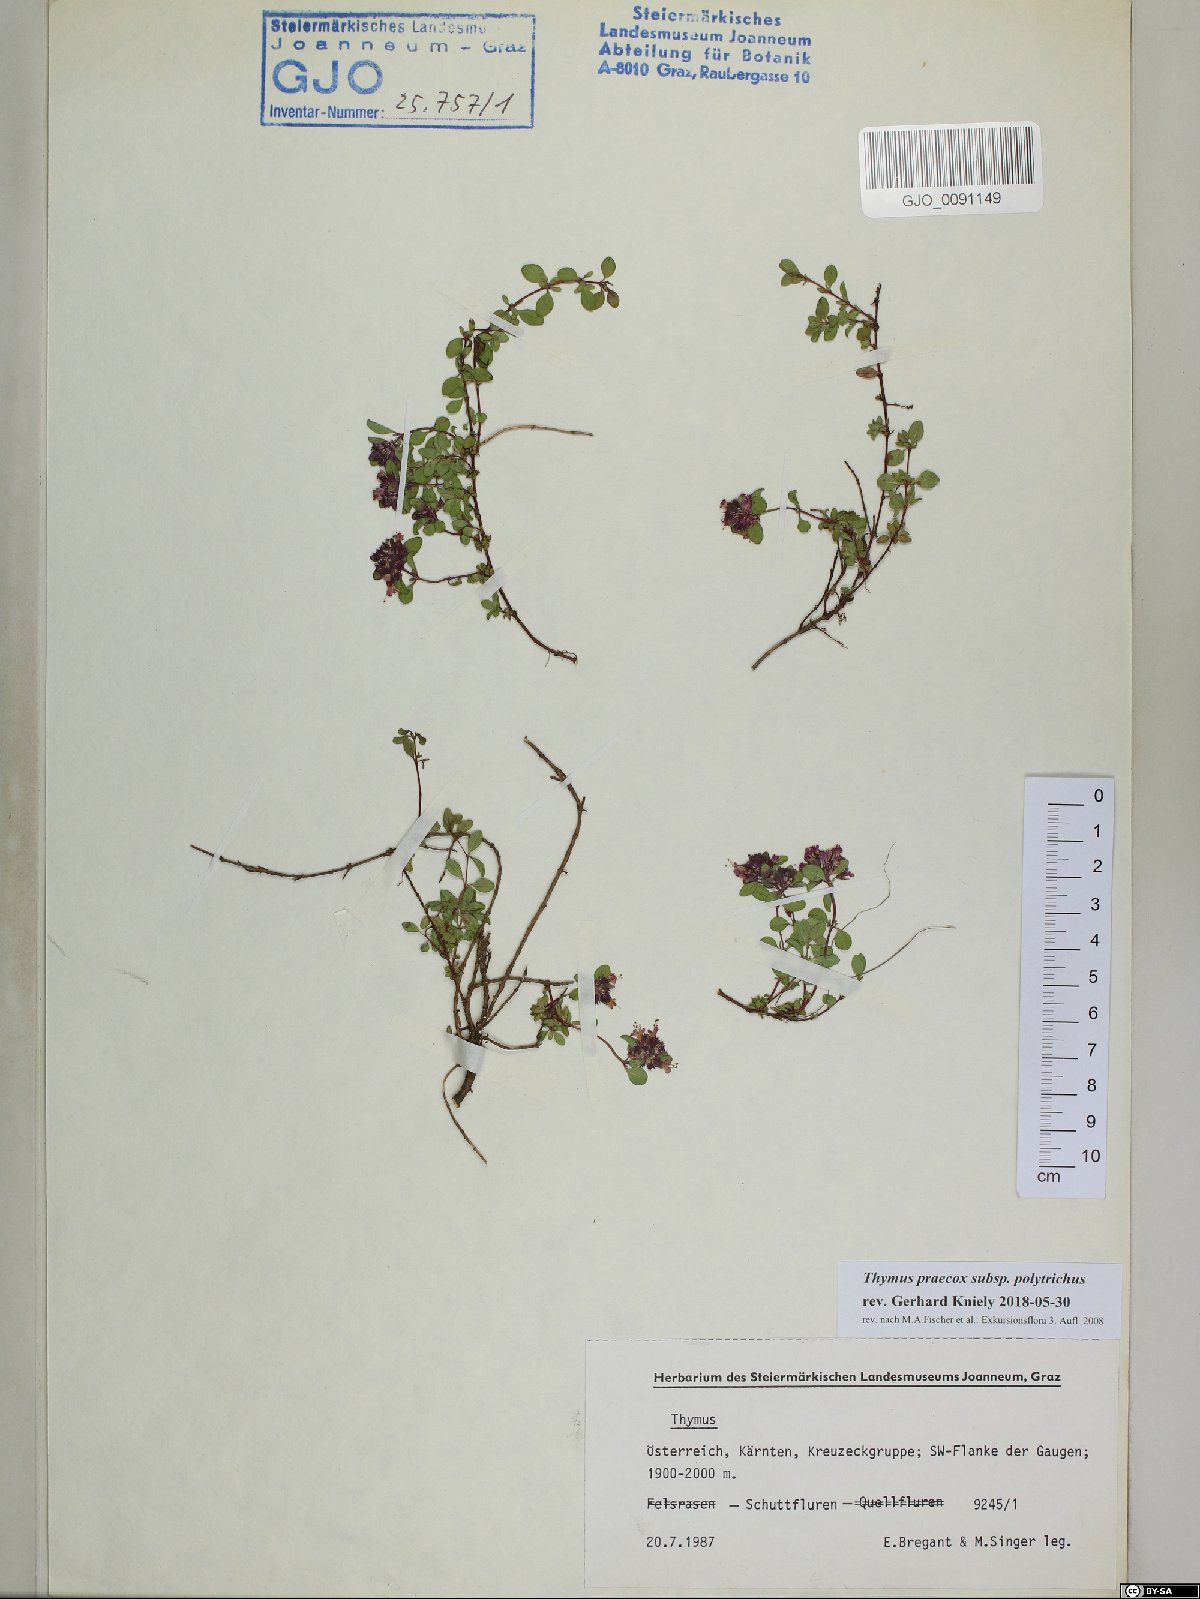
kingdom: Plantae
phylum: Tracheophyta
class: Magnoliopsida
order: Lamiales
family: Lamiaceae
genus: Thymus
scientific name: Thymus praecox
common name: Wild thyme
